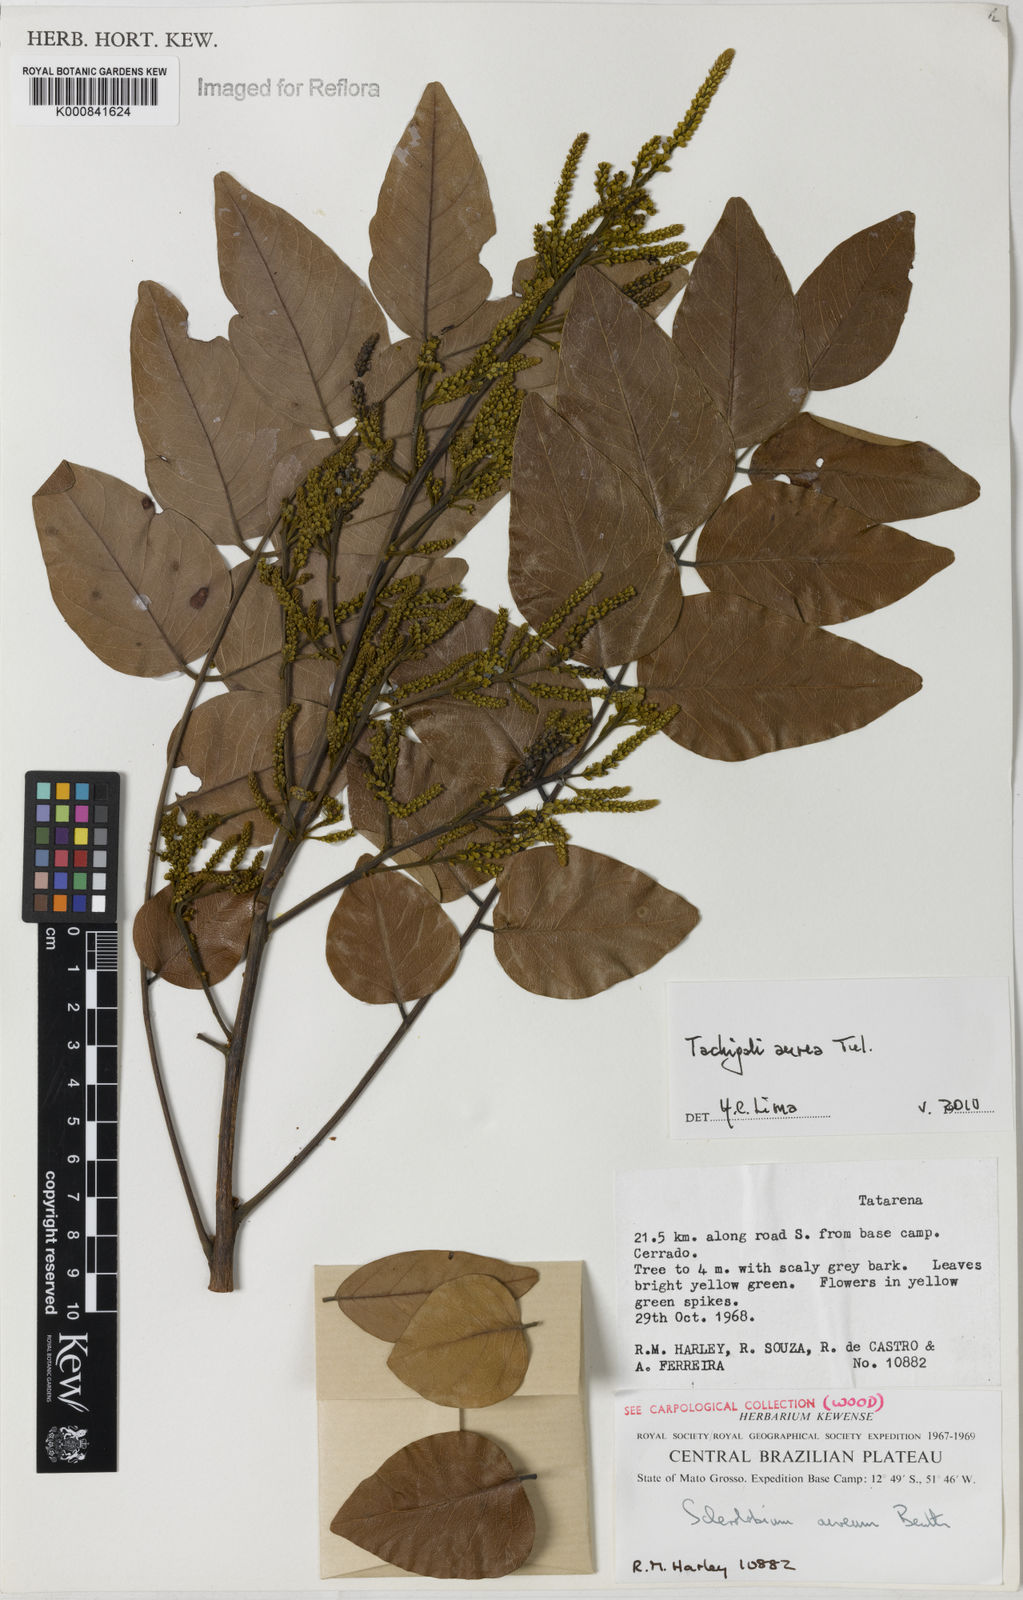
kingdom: Plantae
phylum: Tracheophyta
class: Magnoliopsida
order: Fabales
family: Fabaceae
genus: Tachigali
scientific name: Tachigali aurea
